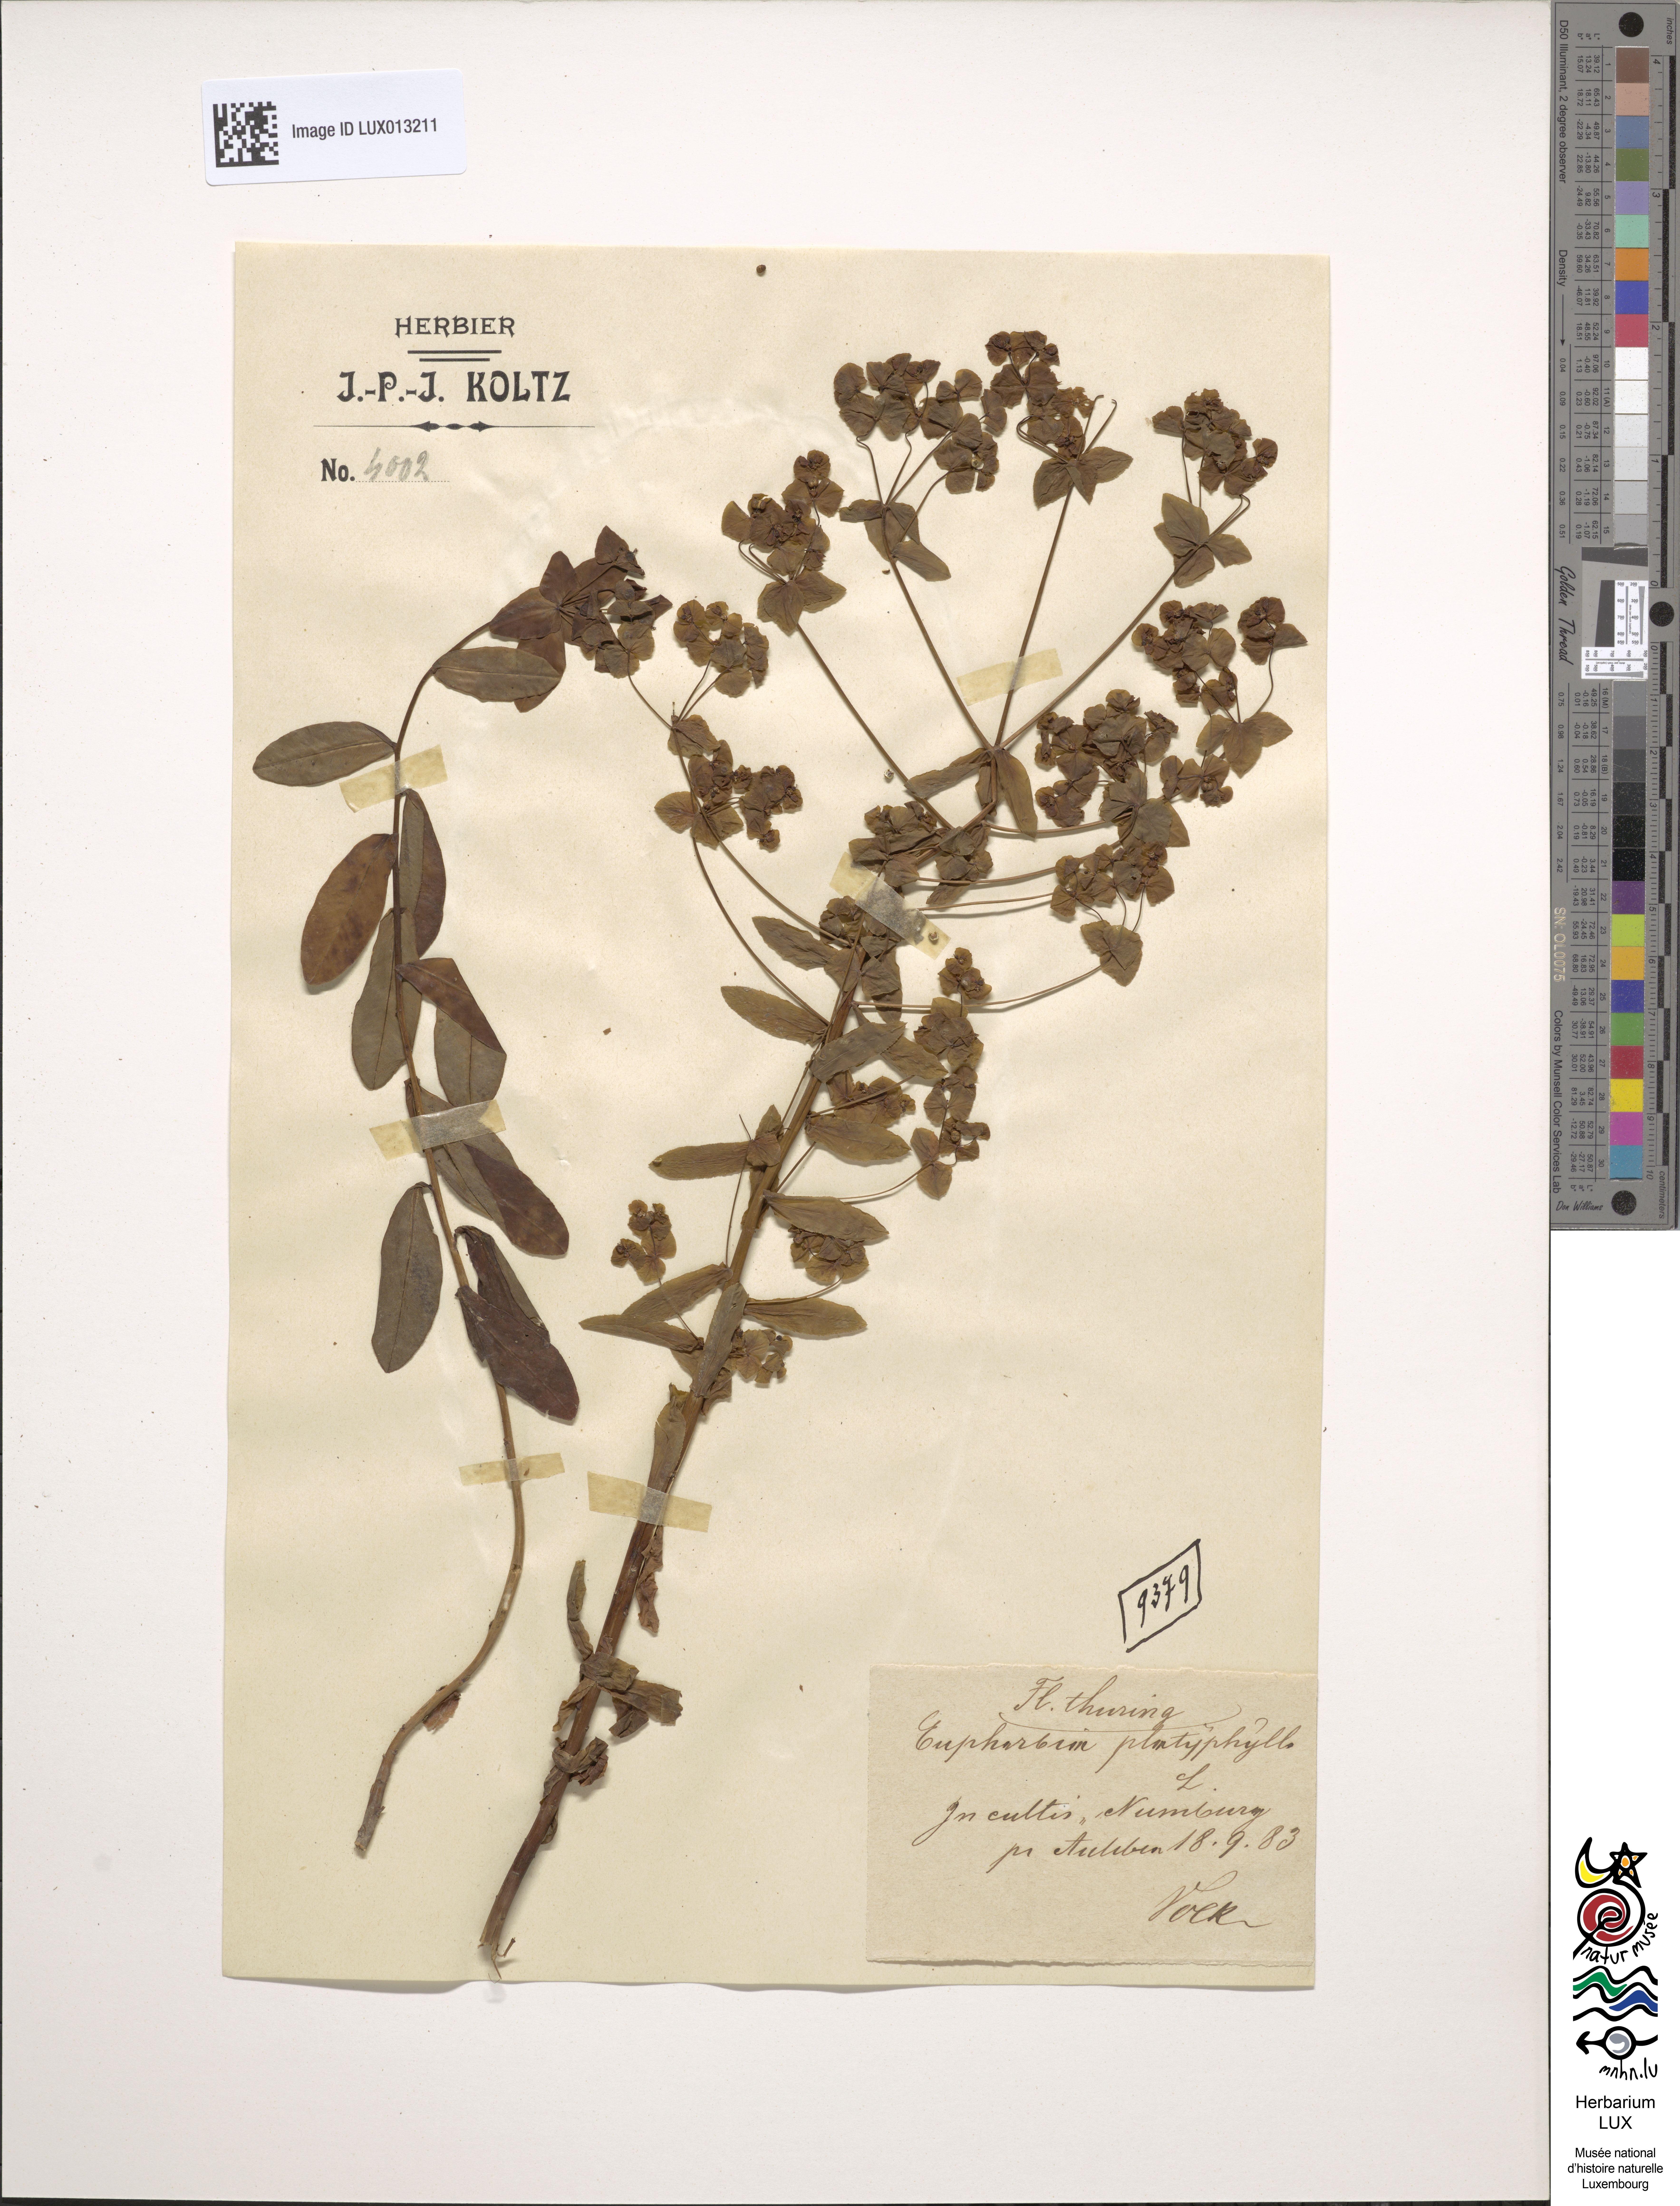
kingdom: Plantae
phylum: Tracheophyta
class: Magnoliopsida
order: Malpighiales
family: Euphorbiaceae
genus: Euphorbia
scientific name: Euphorbia platyphyllos
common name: Broad-leaved spurge
